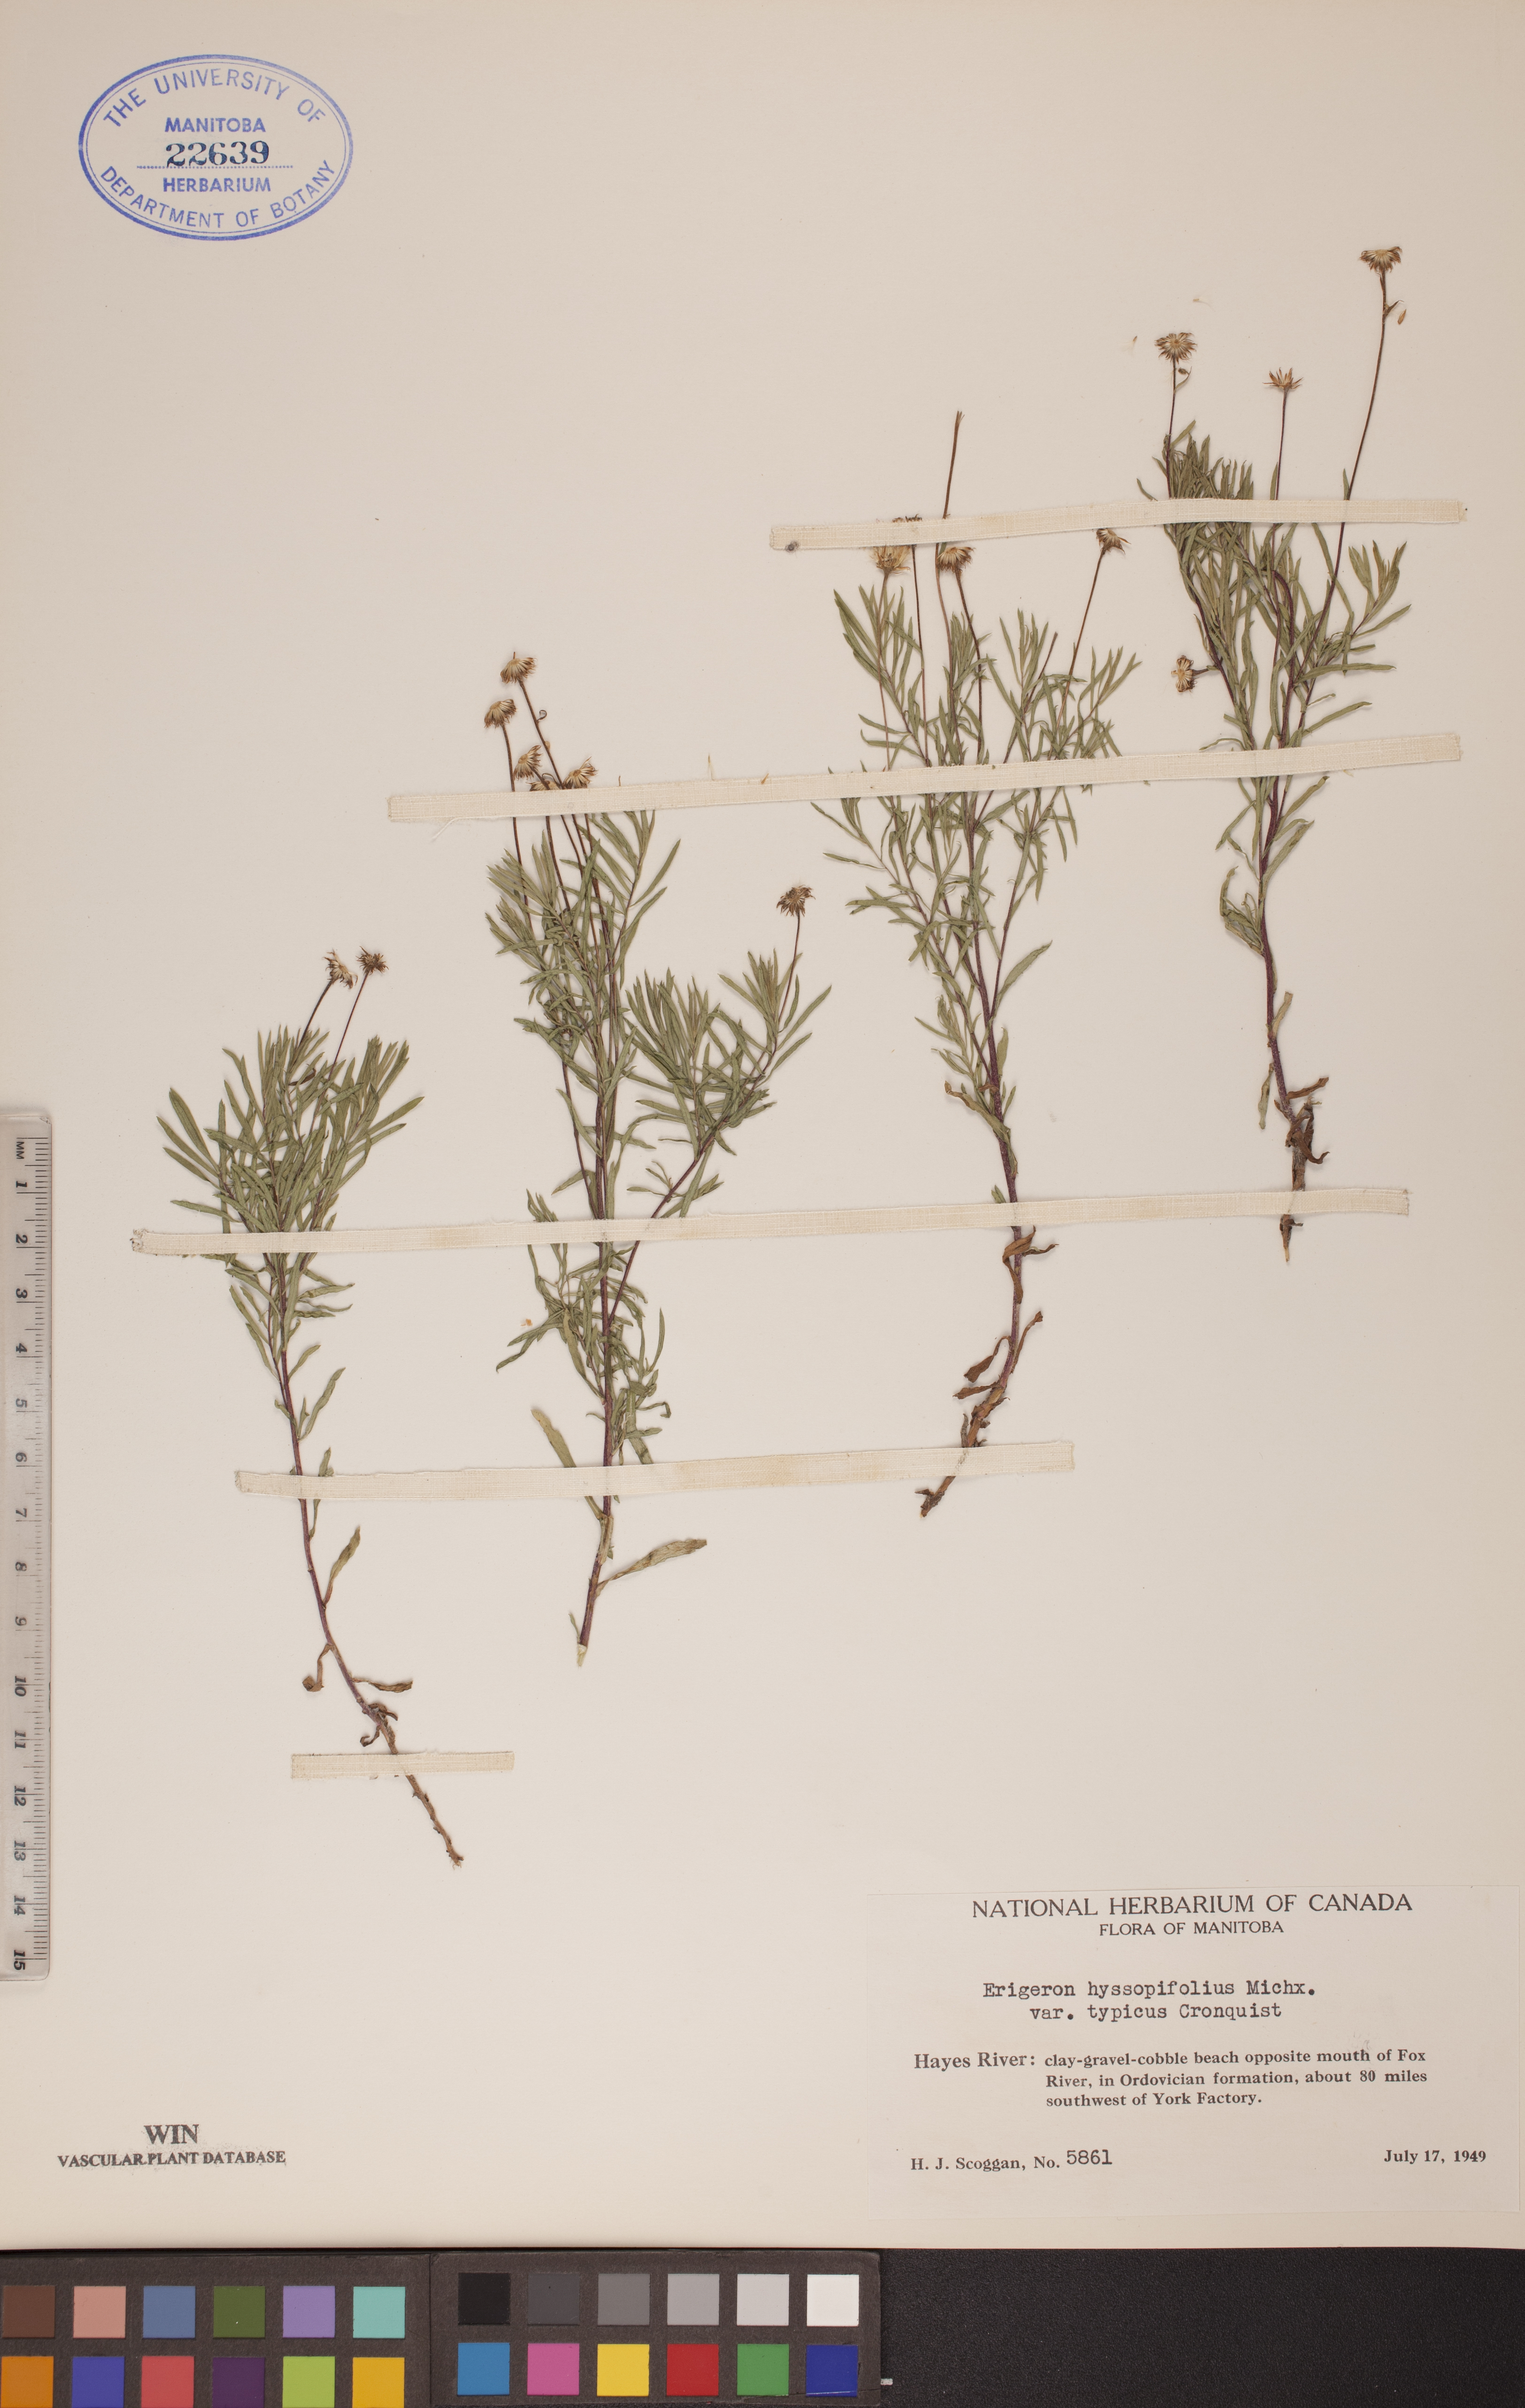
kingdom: Plantae
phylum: Tracheophyta
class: Magnoliopsida
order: Asterales
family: Asteraceae
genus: Erigeron
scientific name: Erigeron hyssopifolius
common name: Daisy fleabane
